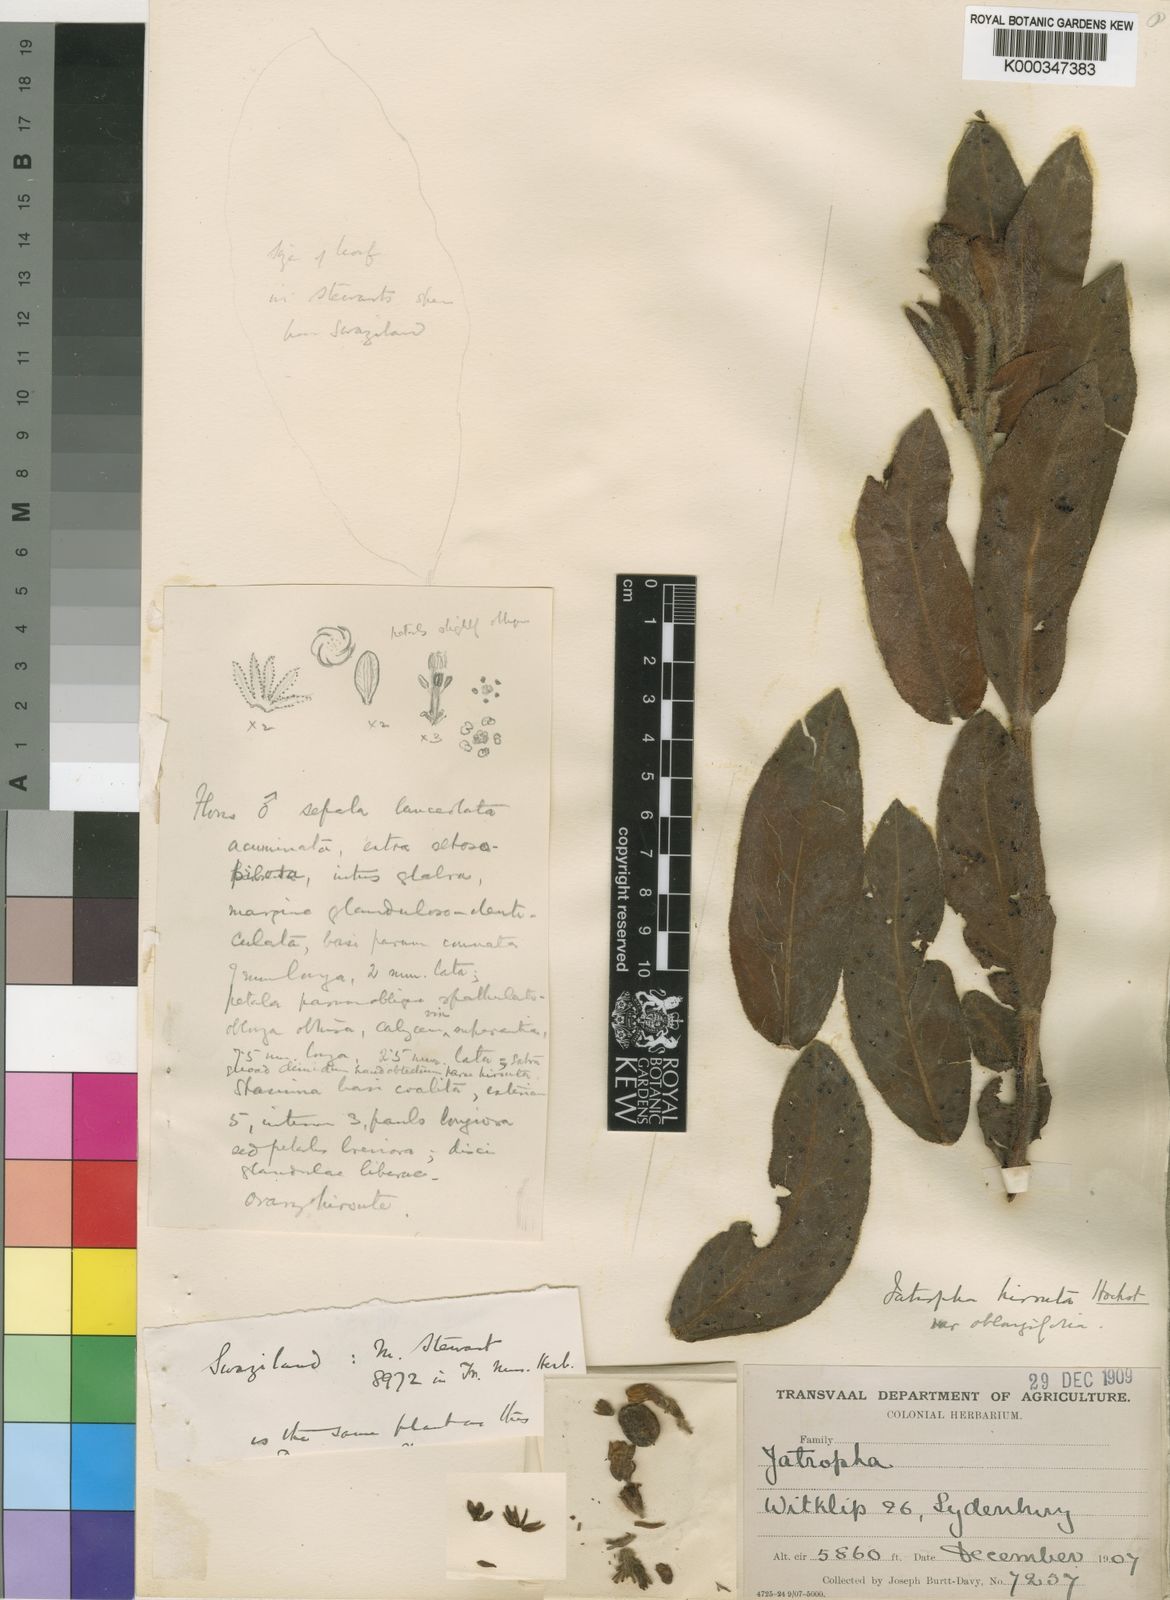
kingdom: Plantae
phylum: Tracheophyta
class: Magnoliopsida
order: Malpighiales
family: Euphorbiaceae
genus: Jatropha
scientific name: Jatropha hirsuta
